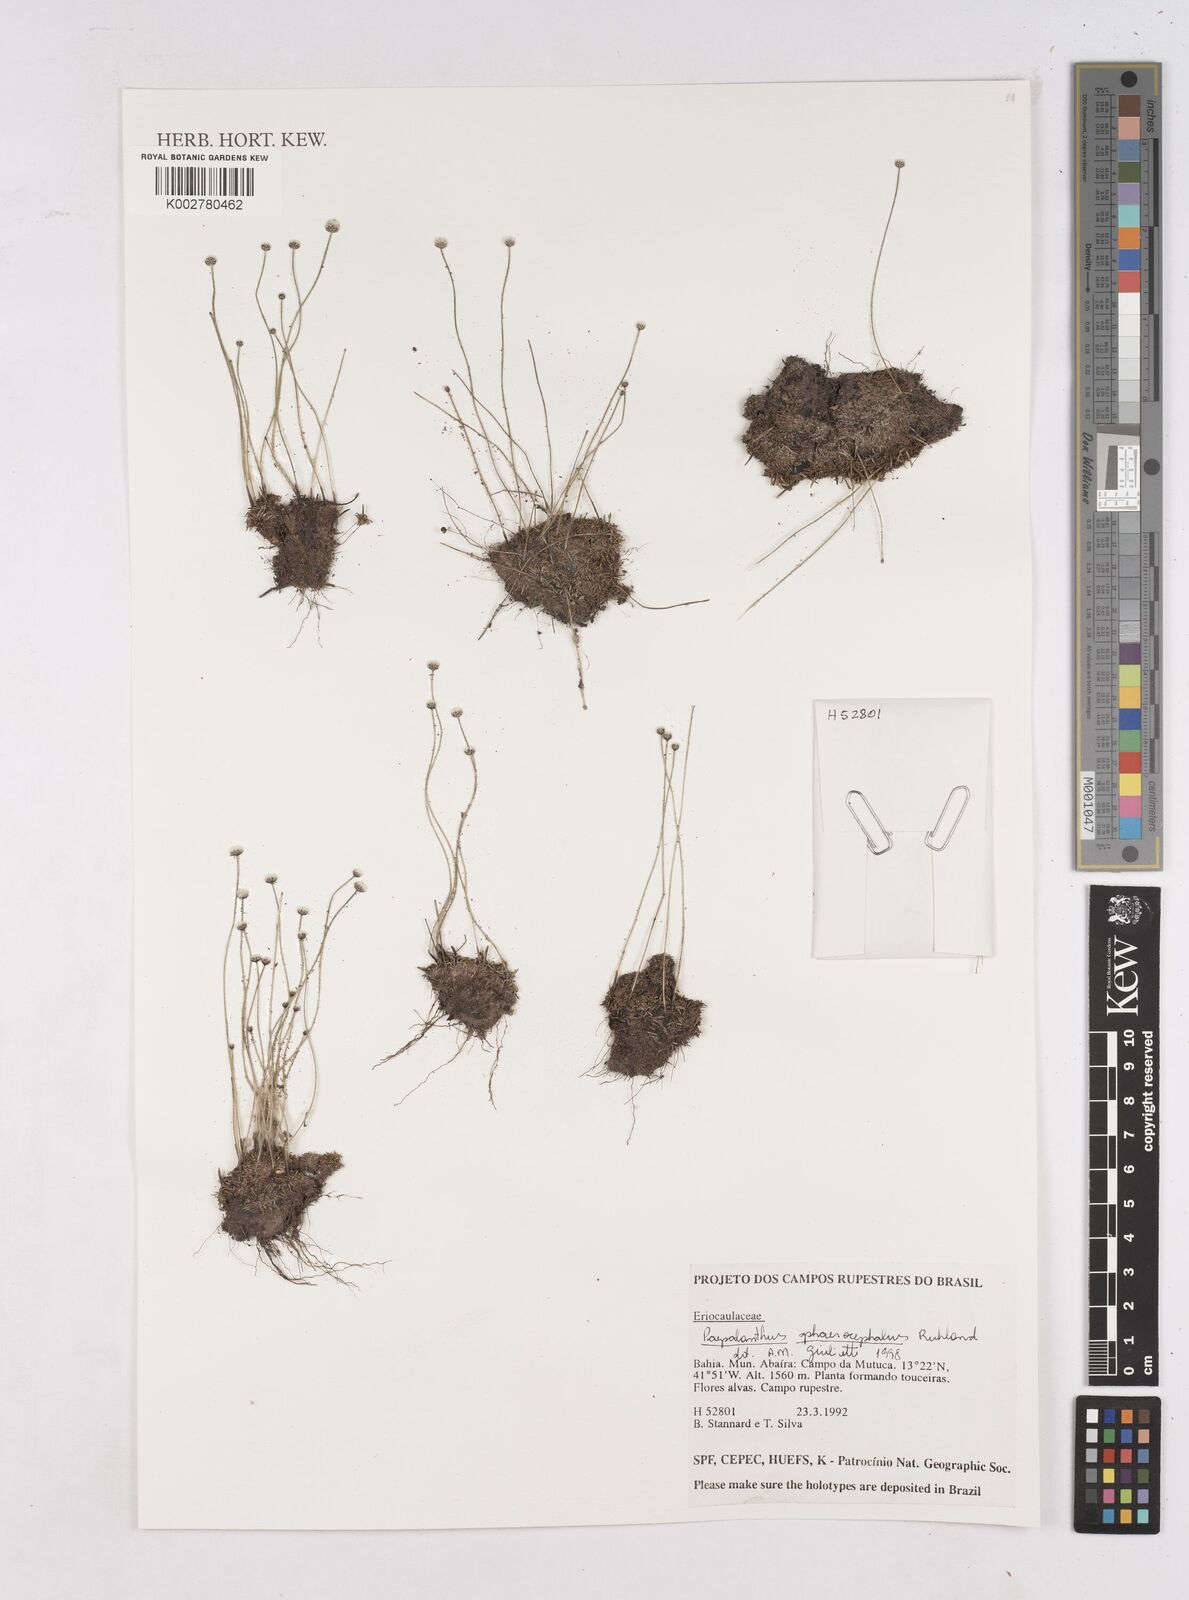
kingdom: Plantae
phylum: Tracheophyta
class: Liliopsida
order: Poales
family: Eriocaulaceae
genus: Paepalanthus
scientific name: Paepalanthus sphaerocephalus
